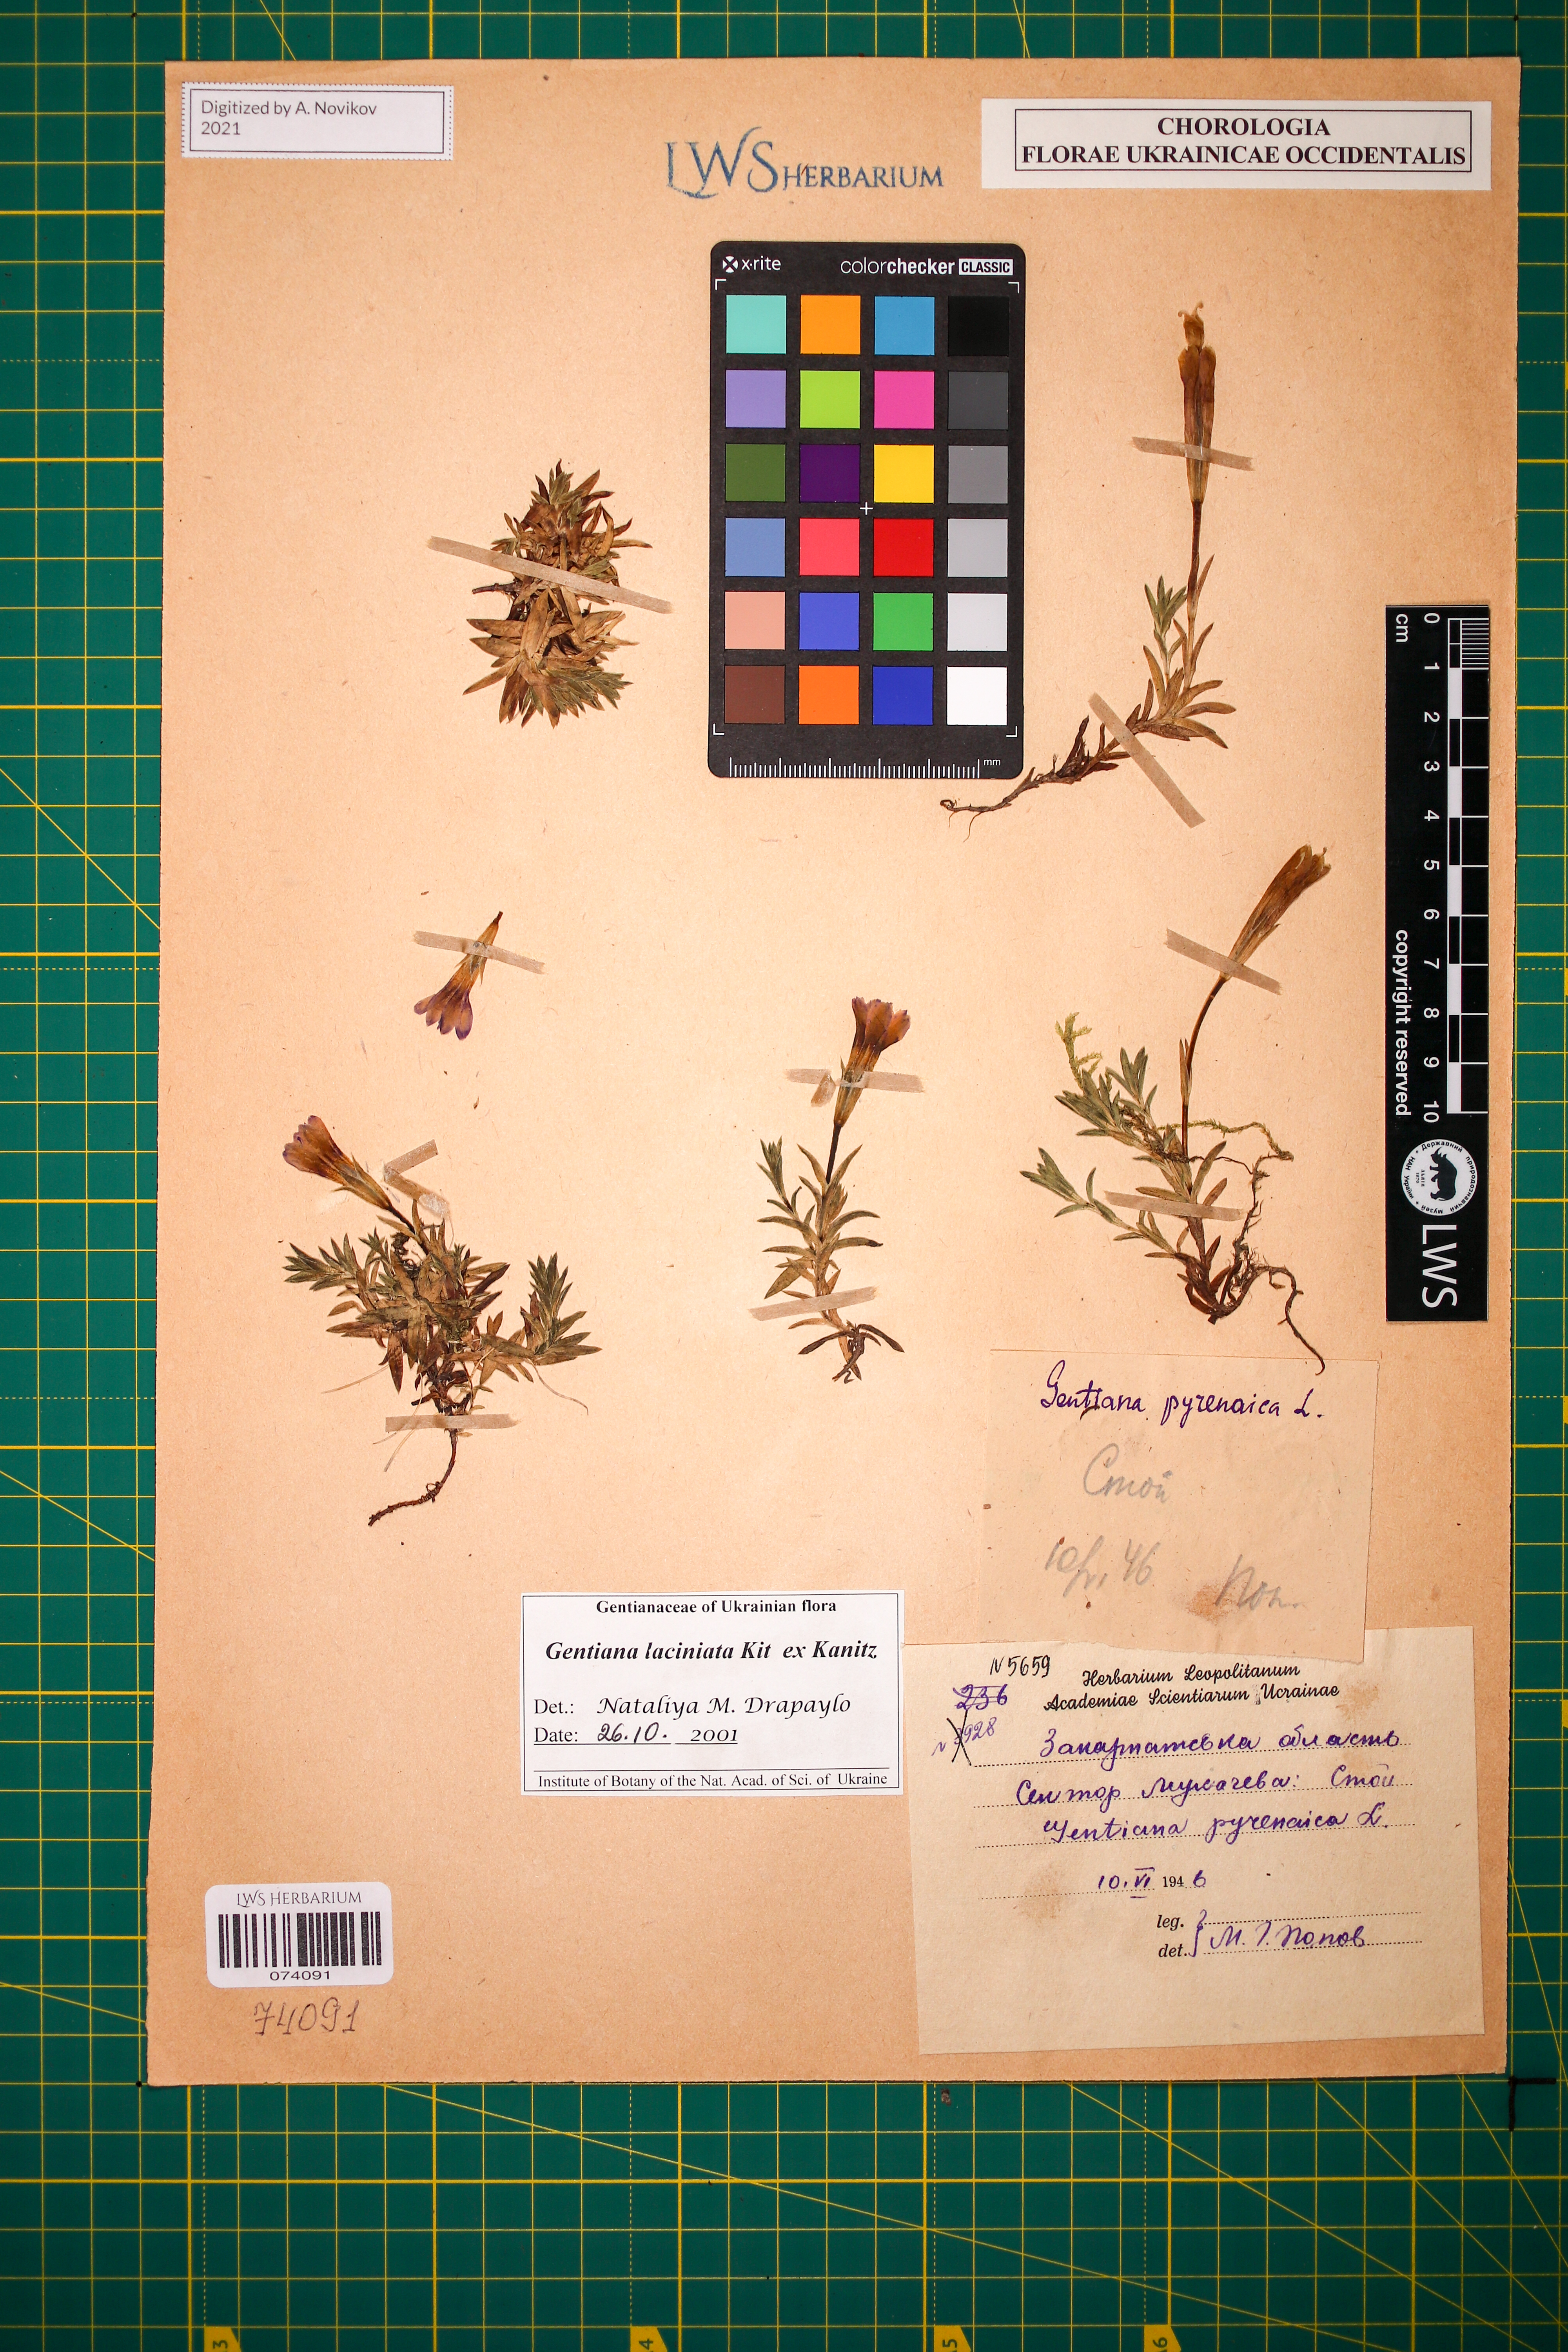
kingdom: Plantae
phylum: Tracheophyta
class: Magnoliopsida
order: Gentianales
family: Gentianaceae
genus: Gentiana
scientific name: Gentiana laciniata
